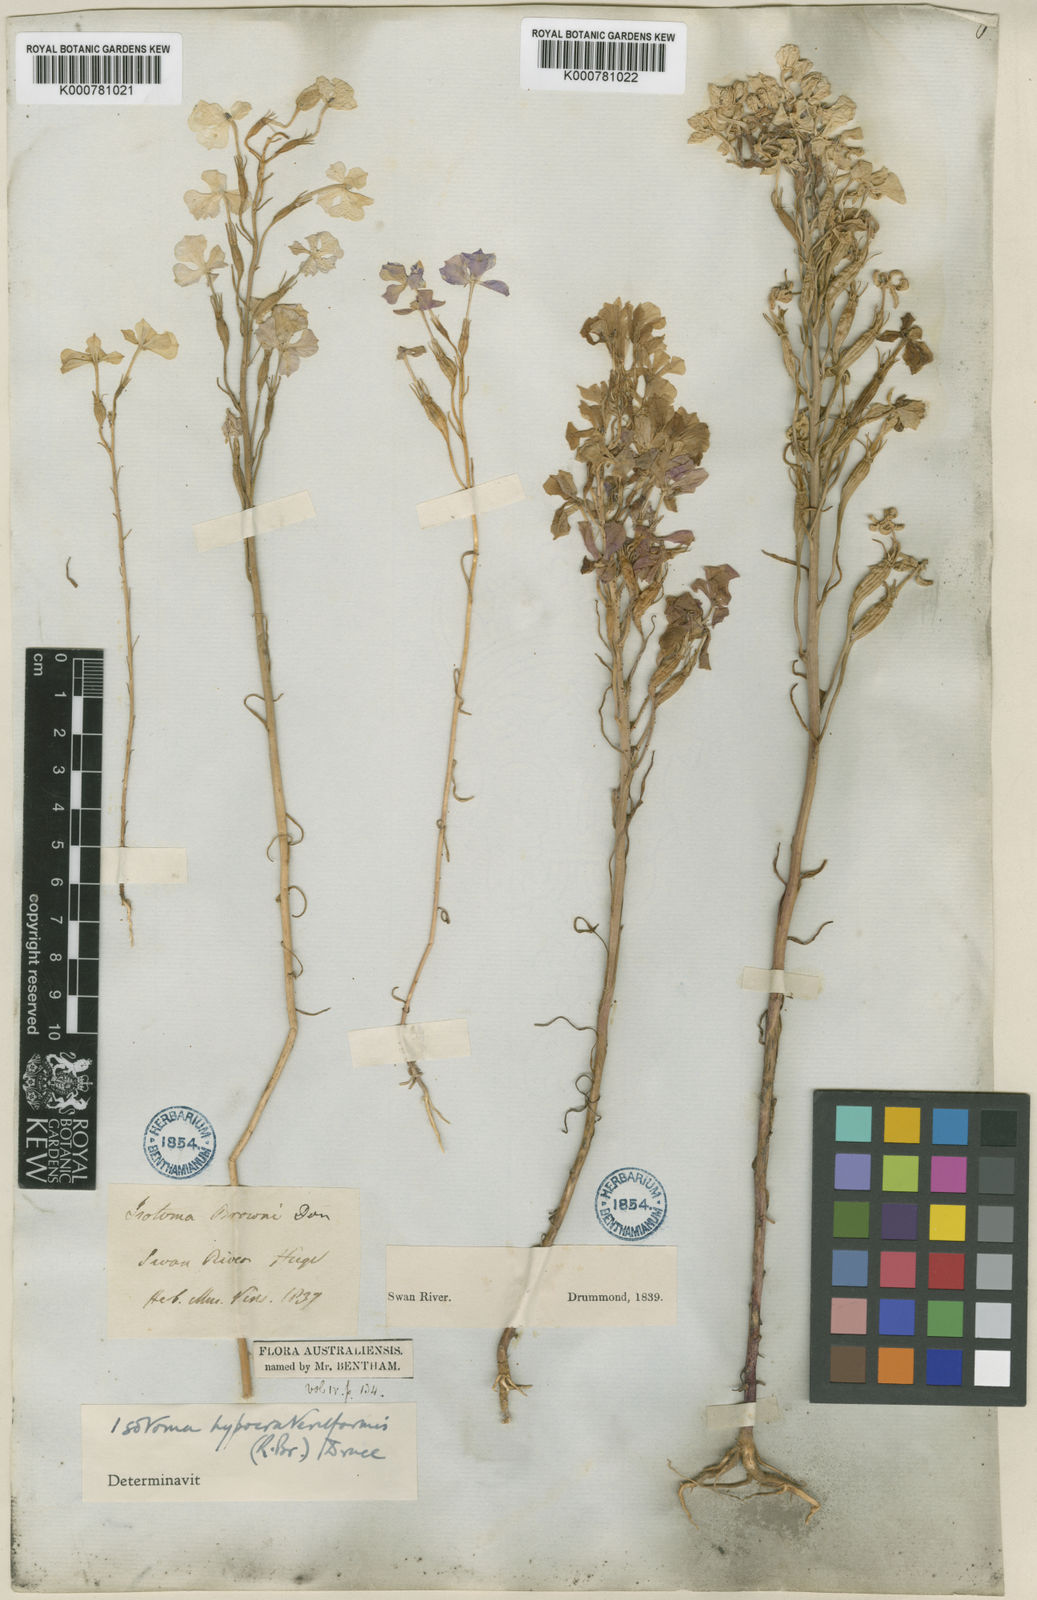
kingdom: Plantae
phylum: Tracheophyta
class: Magnoliopsida
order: Asterales
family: Campanulaceae
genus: Isotoma
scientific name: Isotoma hypocrateriformis
